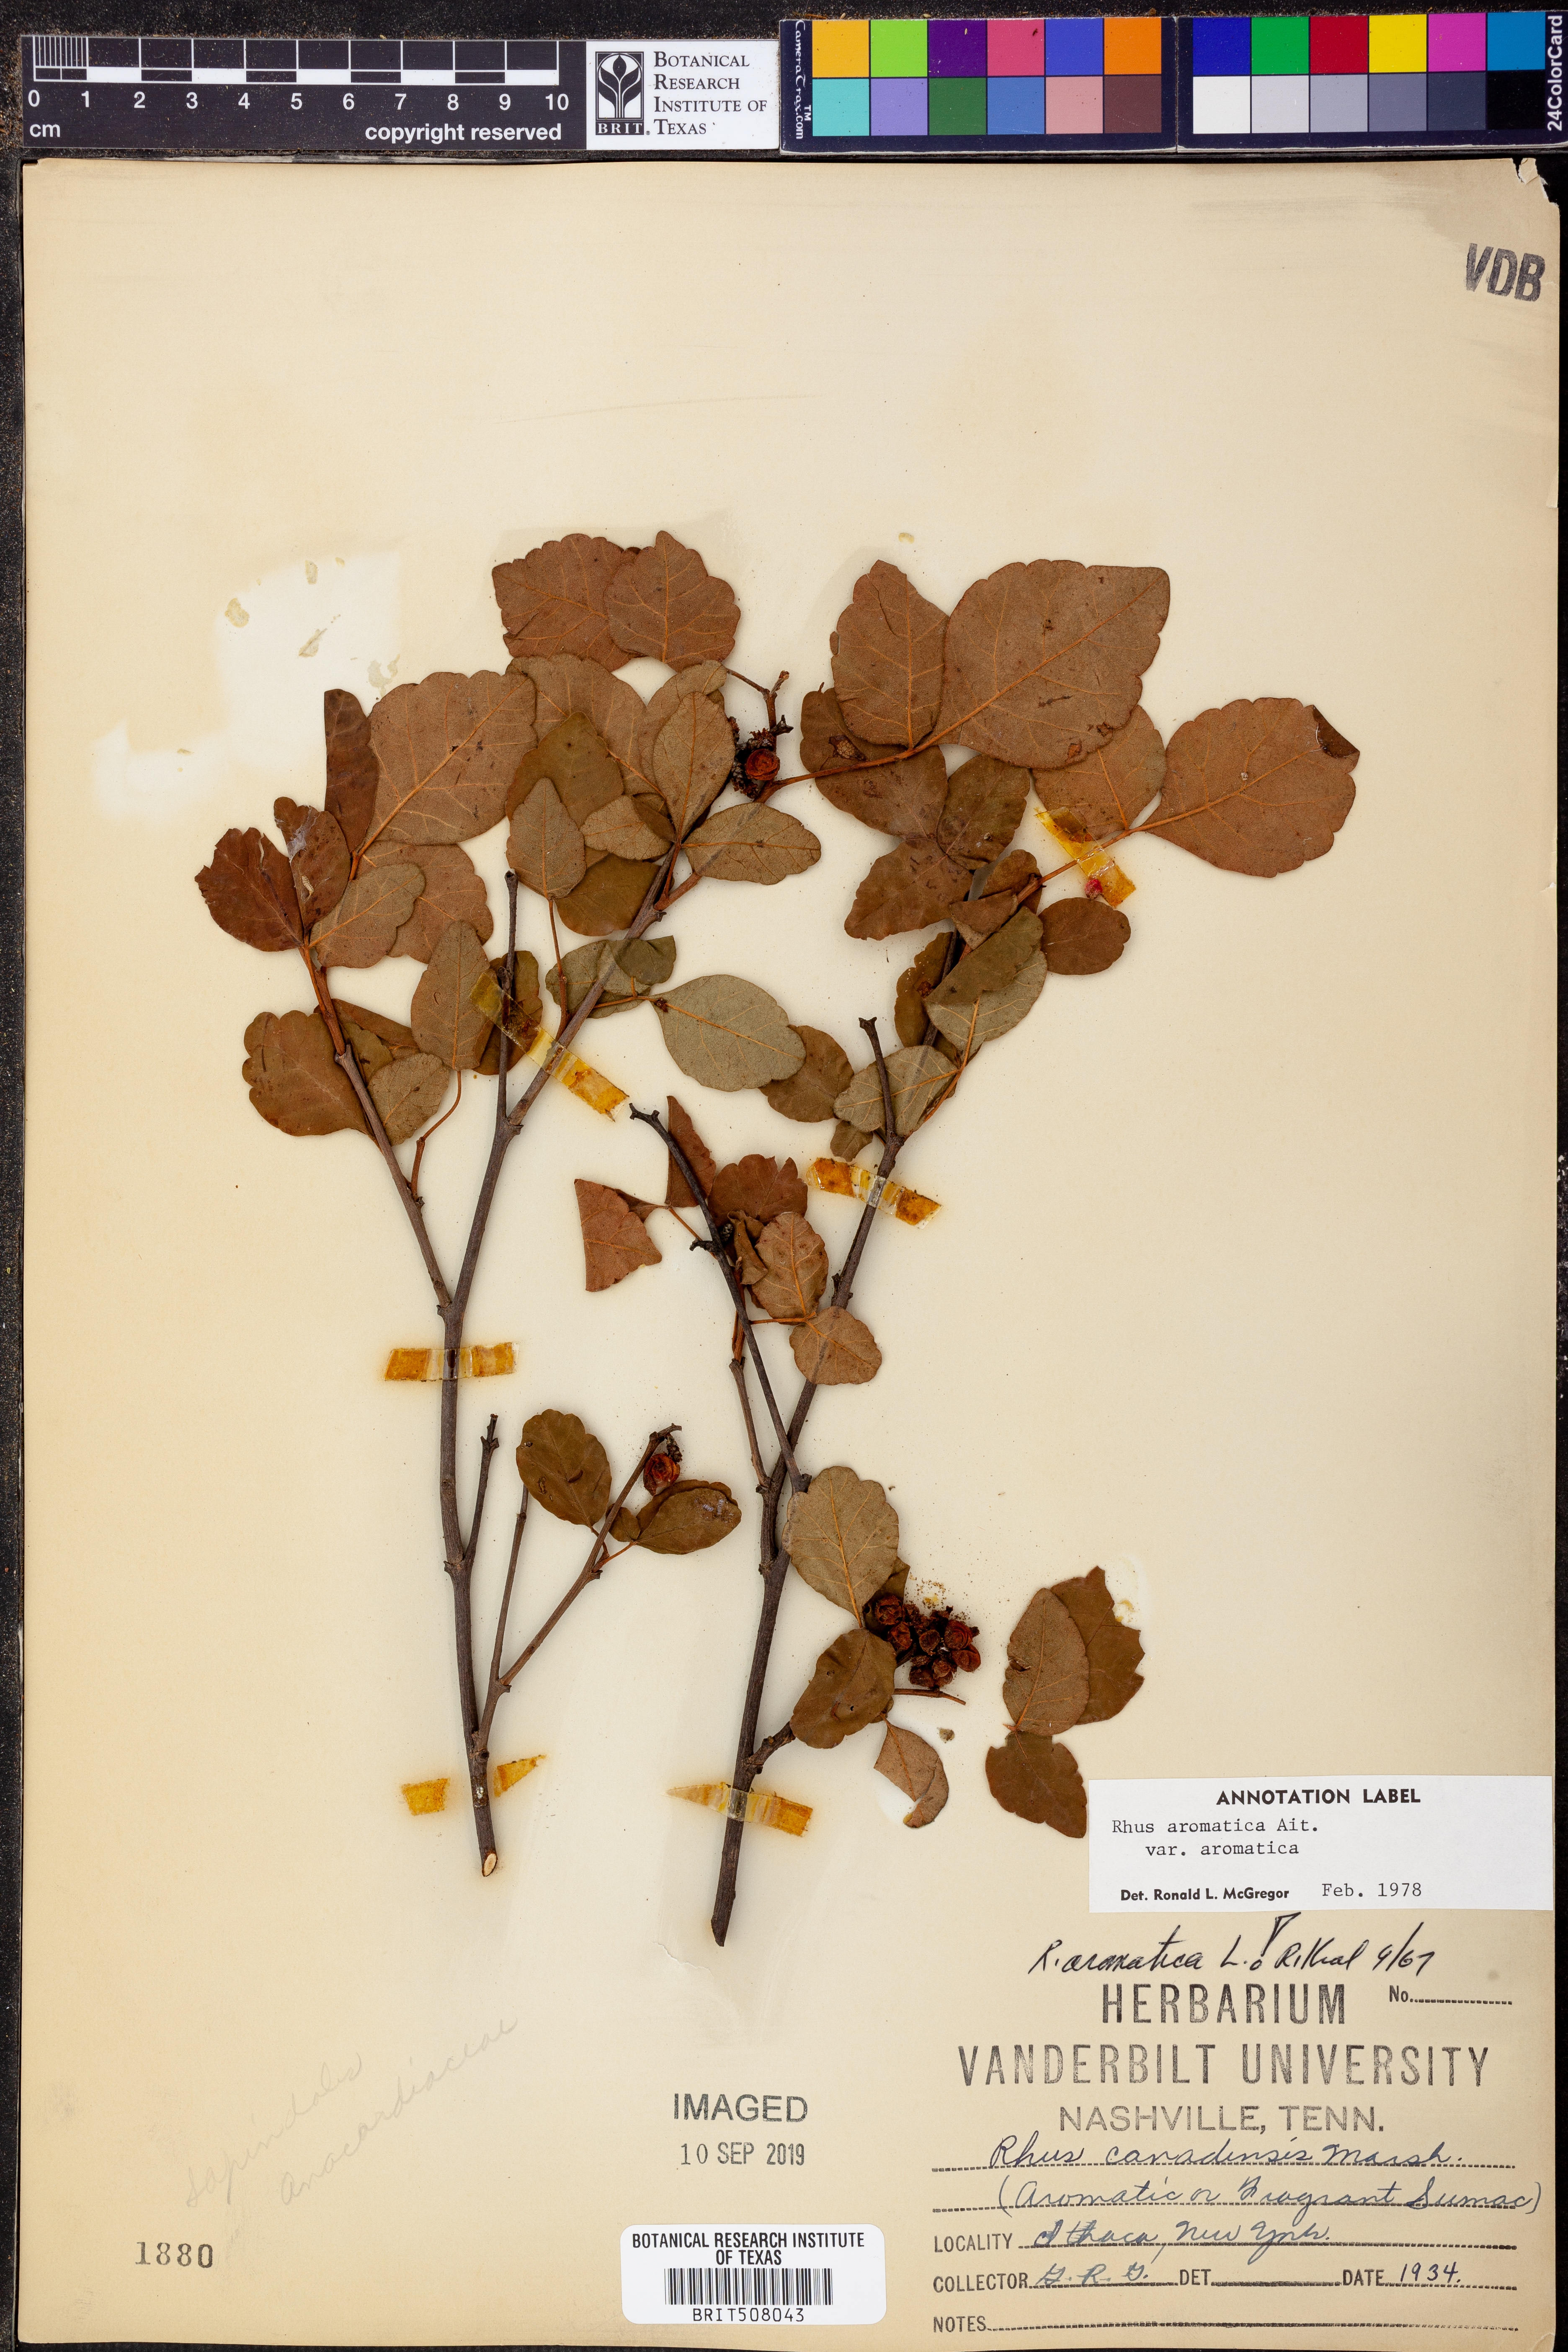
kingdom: Plantae
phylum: Tracheophyta
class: Magnoliopsida
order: Sapindales
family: Anacardiaceae
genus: Rhus
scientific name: Rhus aromatica
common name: Aromatic sumac
